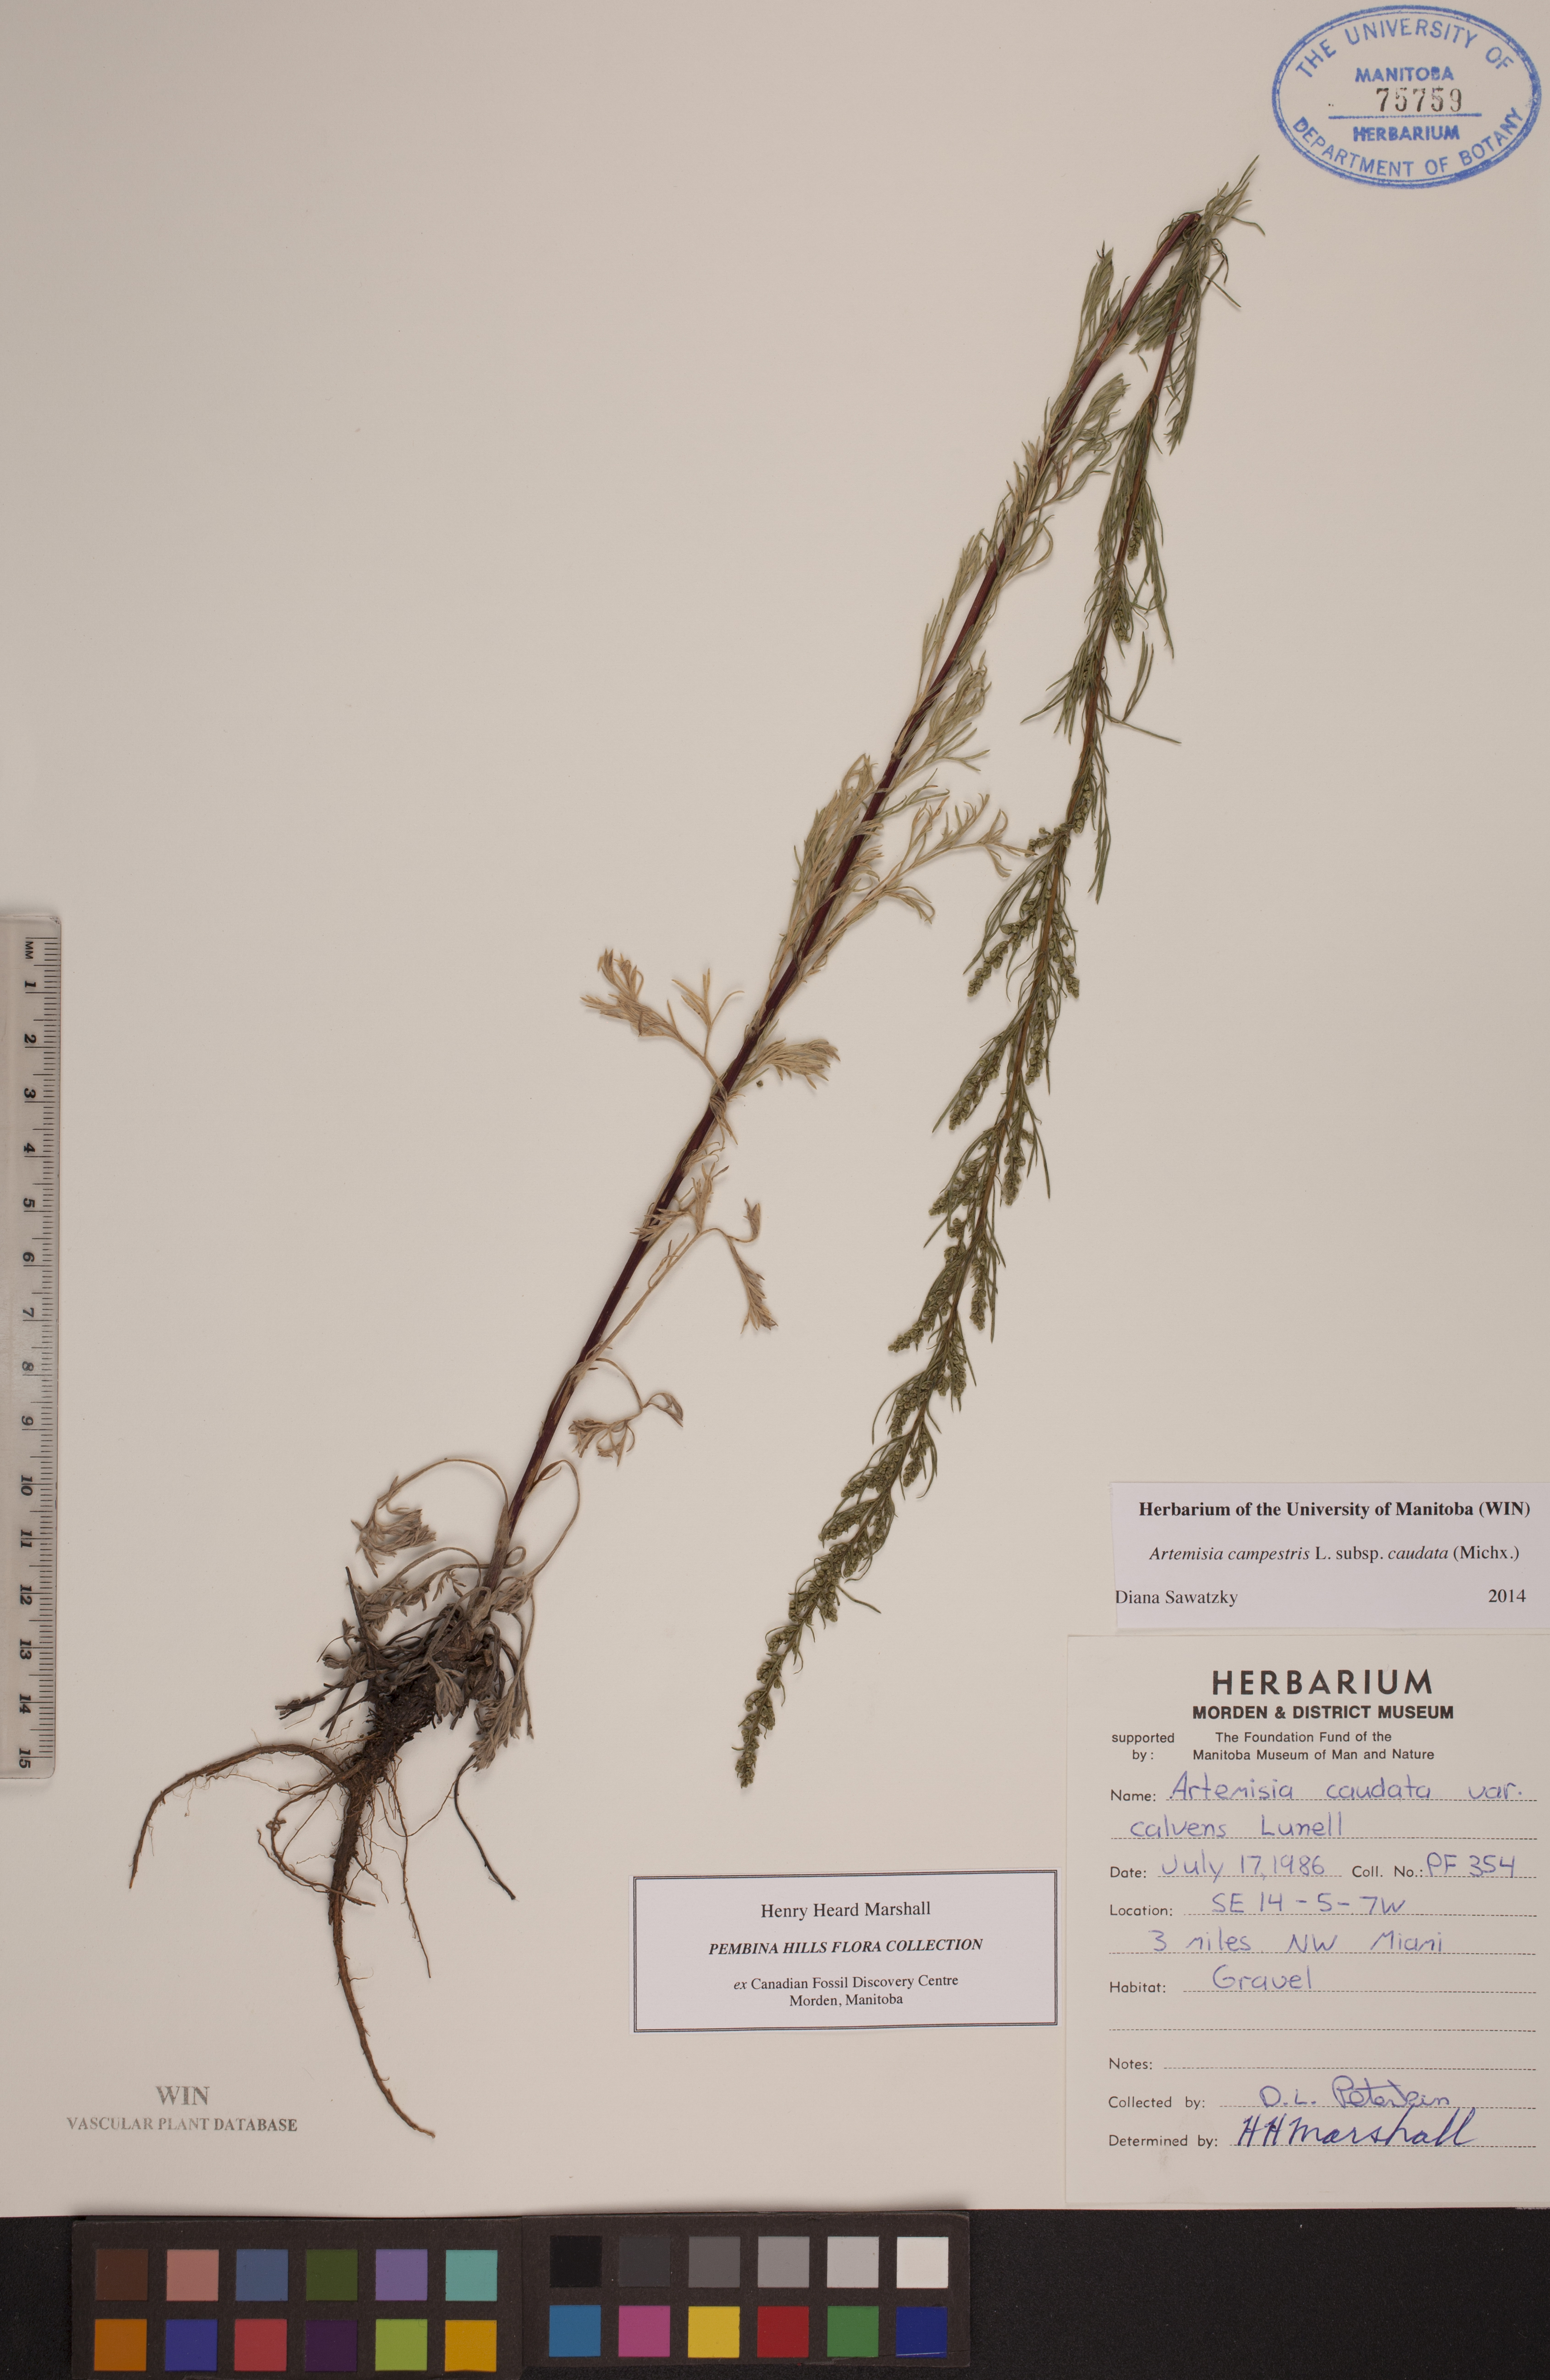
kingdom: Plantae
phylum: Tracheophyta
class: Magnoliopsida
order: Asterales
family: Asteraceae
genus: Artemisia
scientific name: Artemisia campestris
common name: Field wormwood
